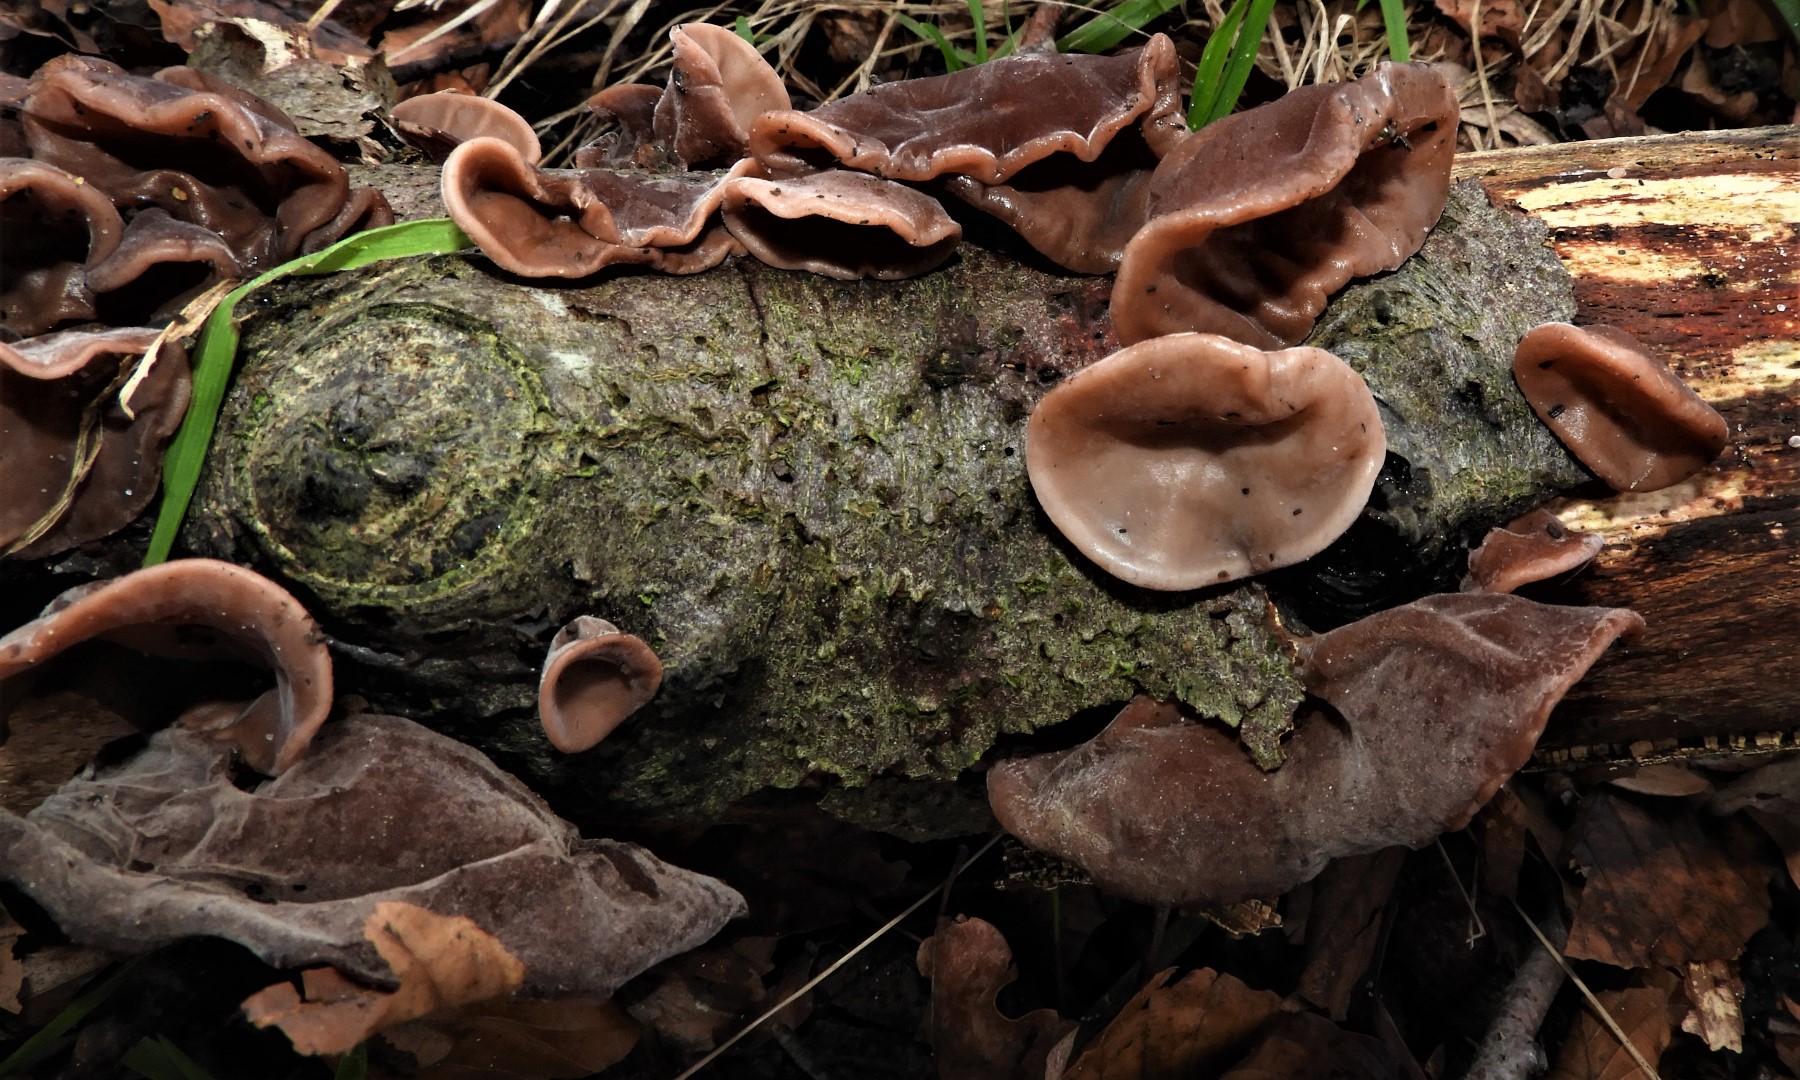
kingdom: Fungi
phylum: Basidiomycota
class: Agaricomycetes
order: Auriculariales
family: Auriculariaceae
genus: Auricularia
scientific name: Auricularia auricula-judae
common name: almindelig judasøre
